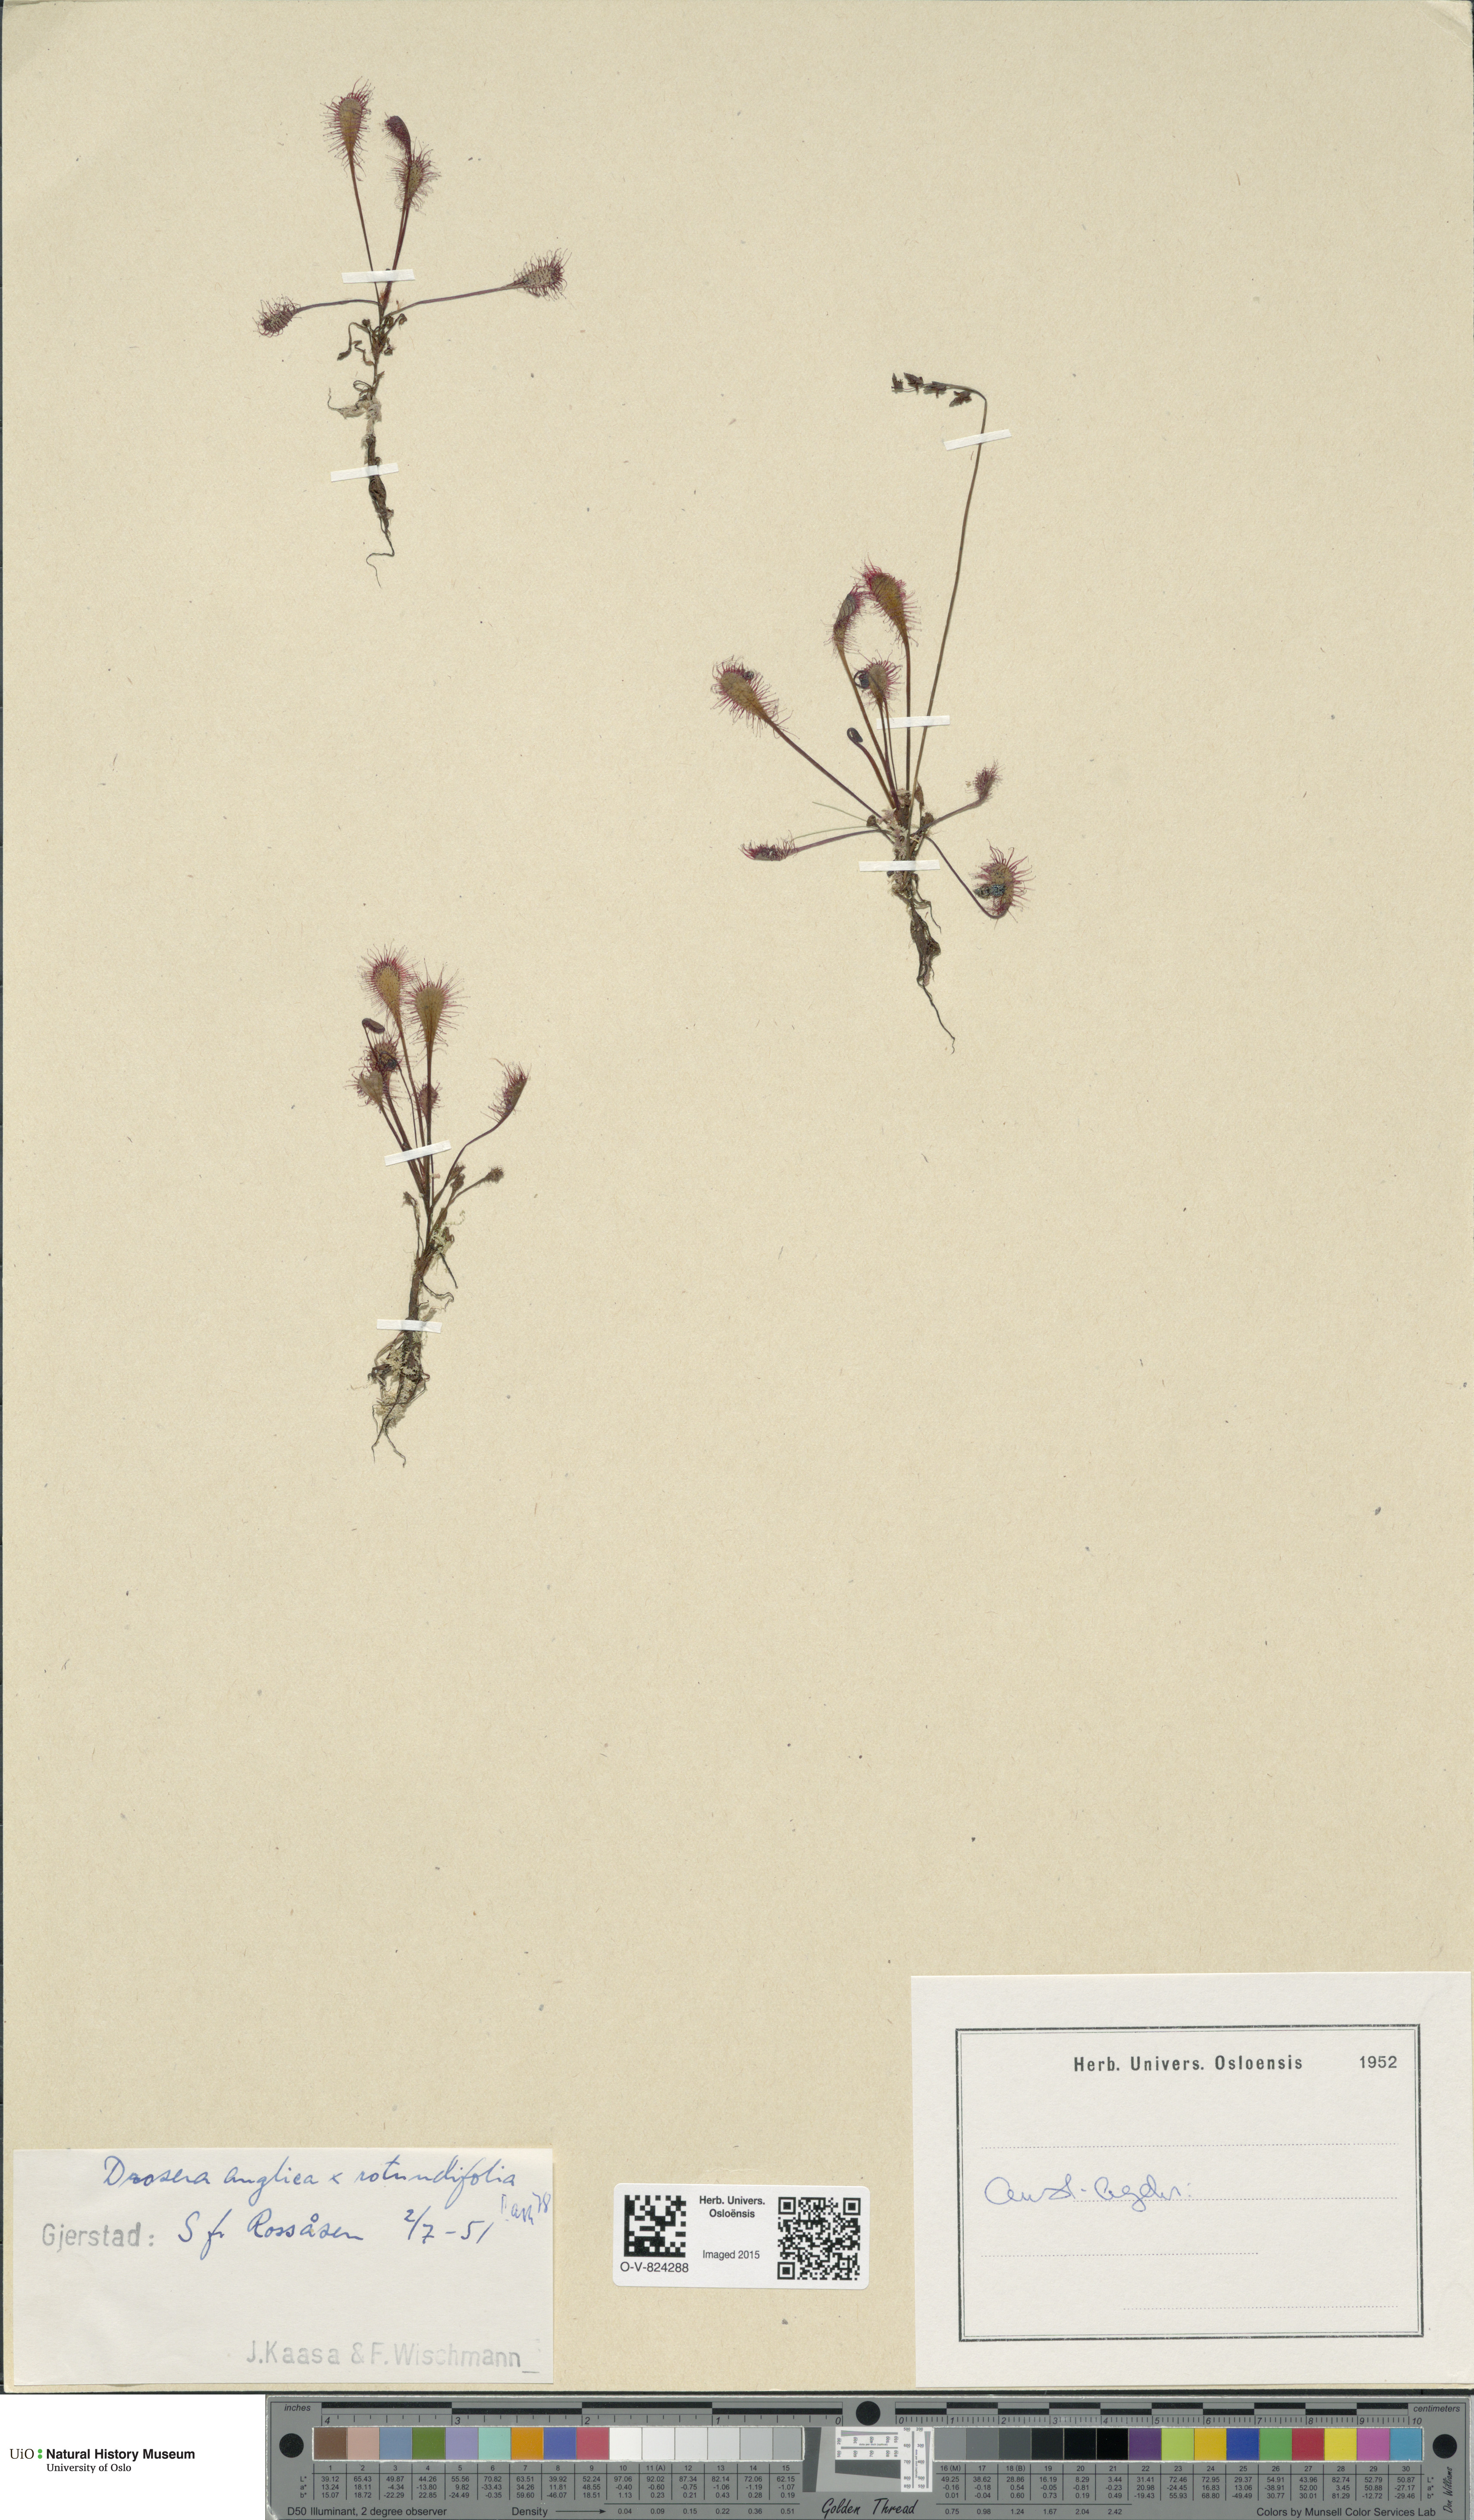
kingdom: Plantae
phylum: Tracheophyta
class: Magnoliopsida
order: Caryophyllales
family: Droseraceae
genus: Drosera
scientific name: Drosera
